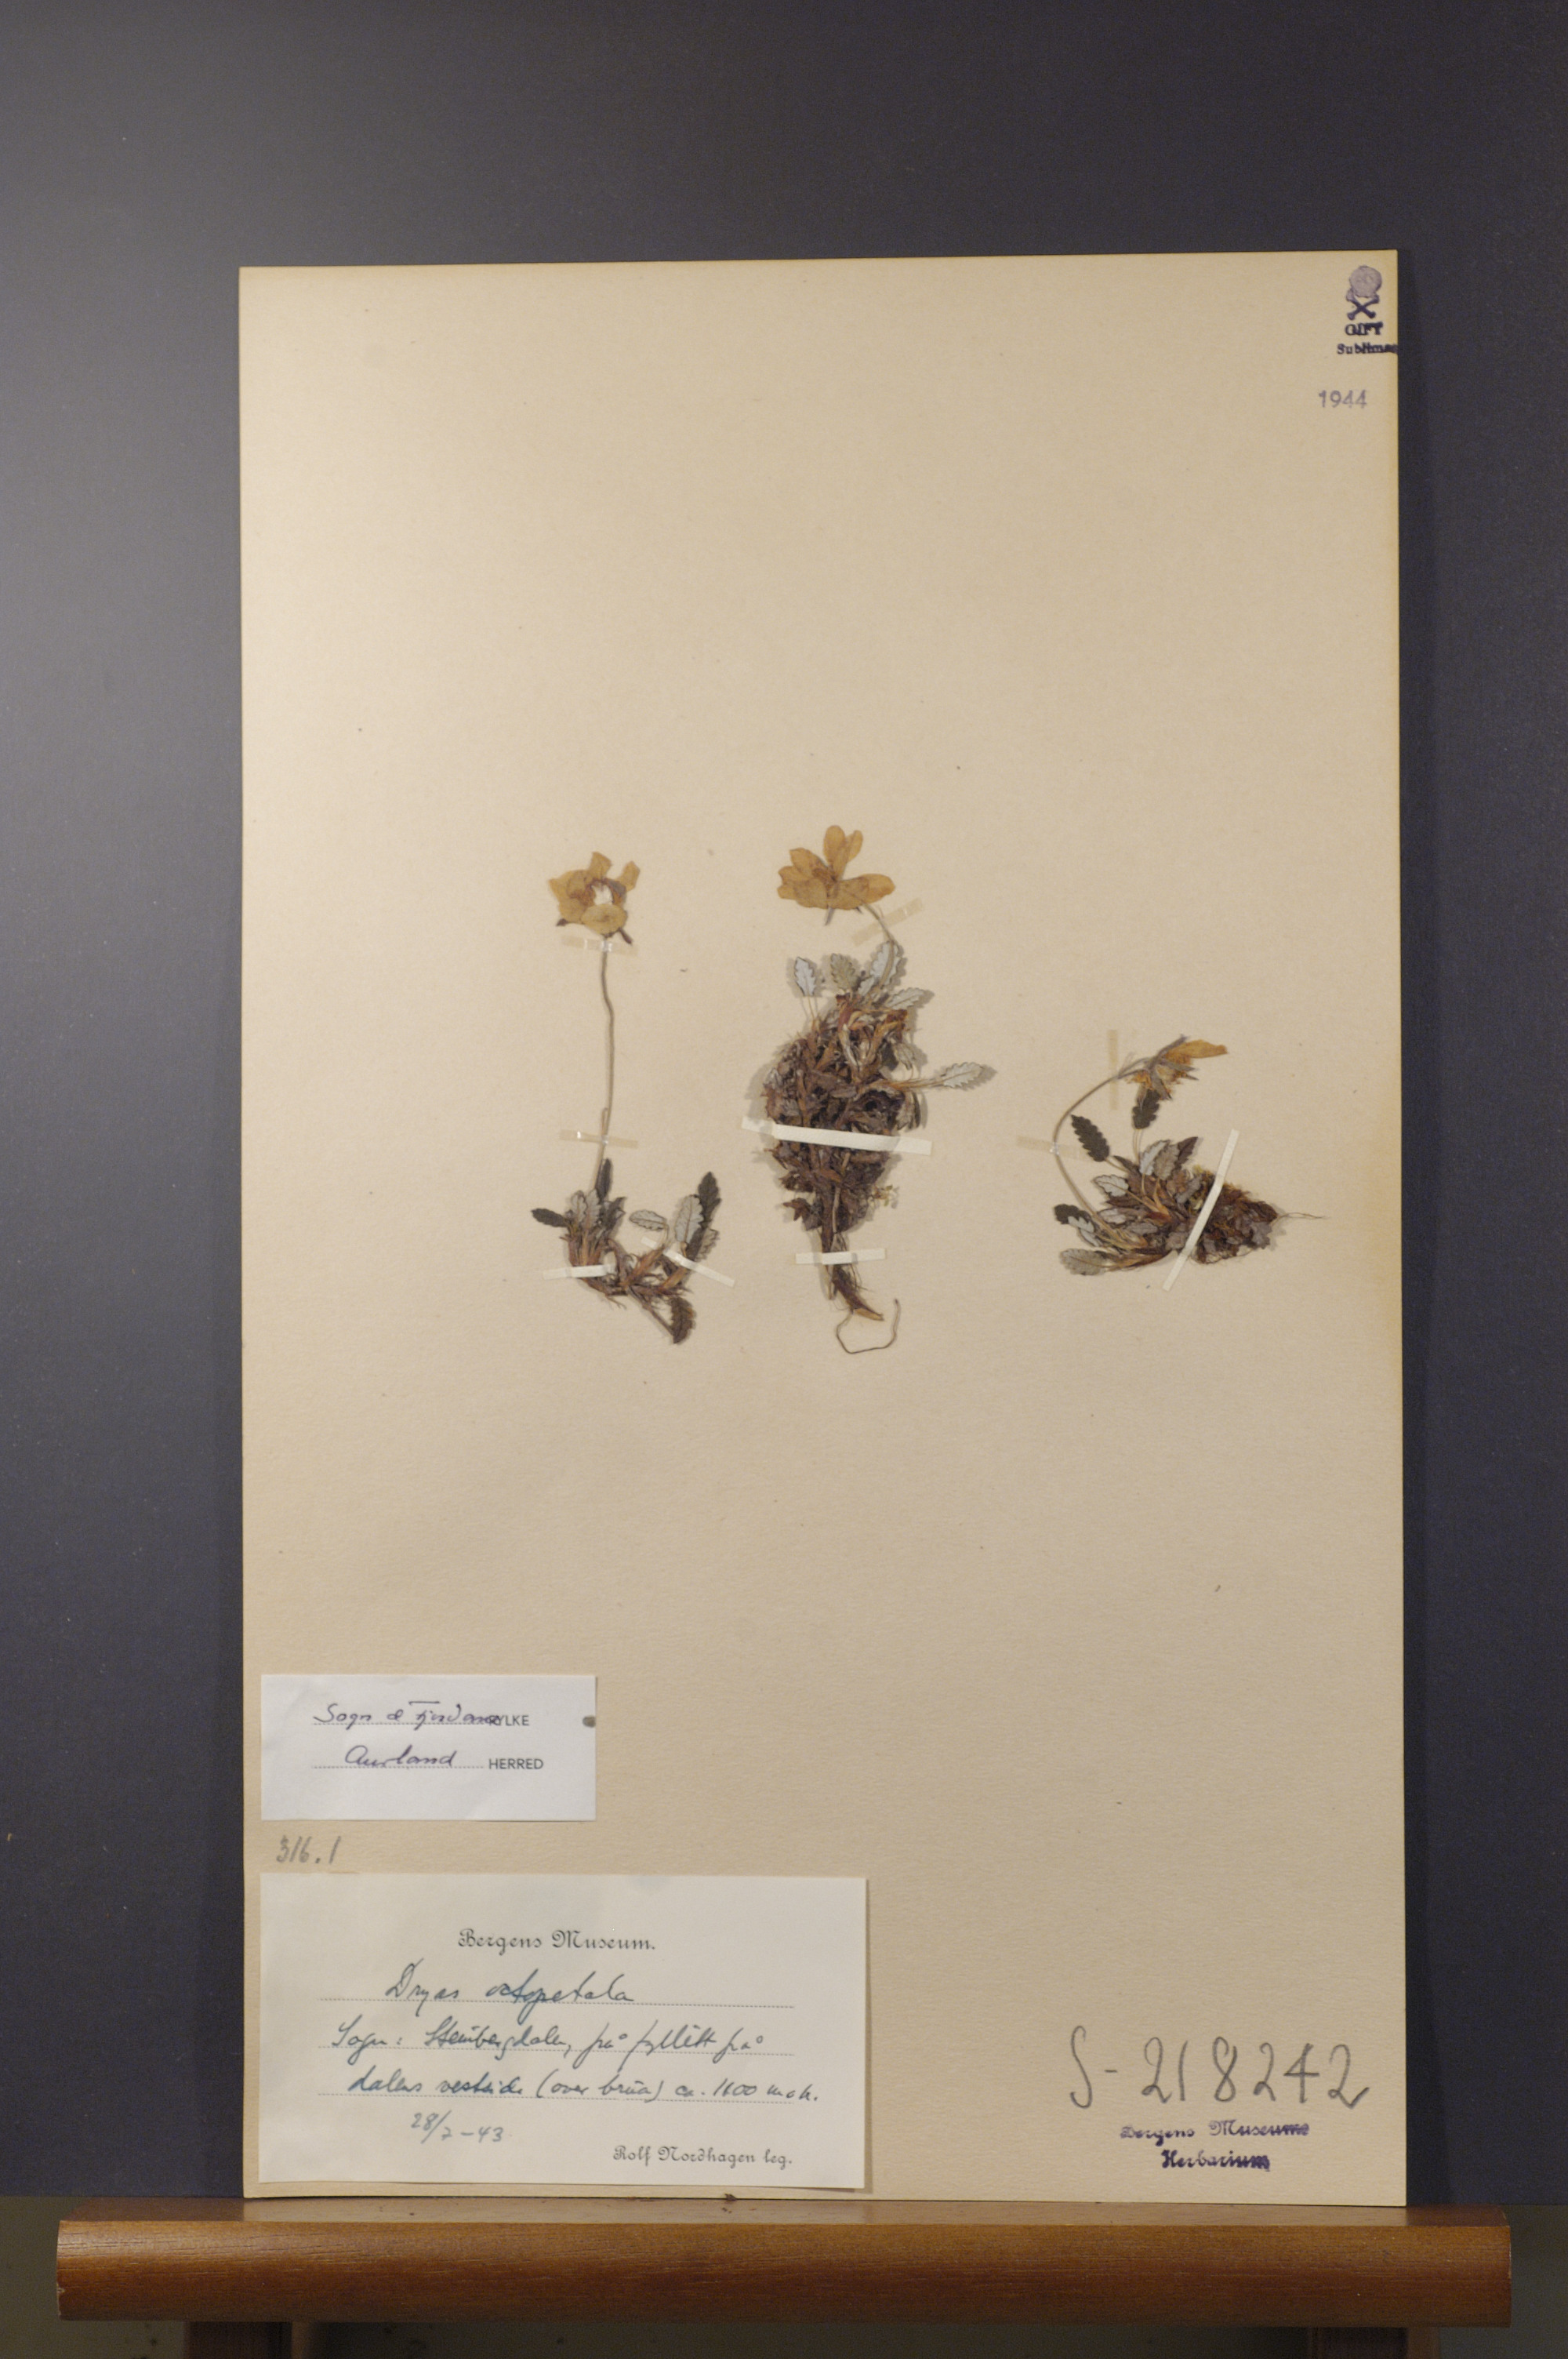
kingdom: Plantae
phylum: Tracheophyta
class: Magnoliopsida
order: Rosales
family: Rosaceae
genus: Dryas
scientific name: Dryas octopetala
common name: Eight-petal mountain-avens
